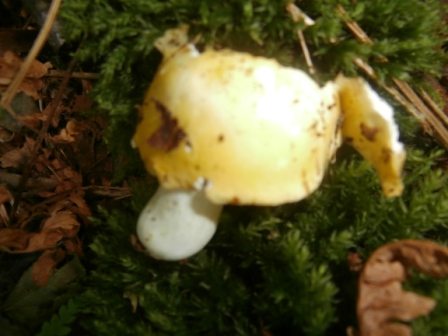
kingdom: Fungi
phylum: Basidiomycota
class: Agaricomycetes
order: Russulales
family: Russulaceae
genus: Russula
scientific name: Russula claroflava
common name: birke-skørhat
